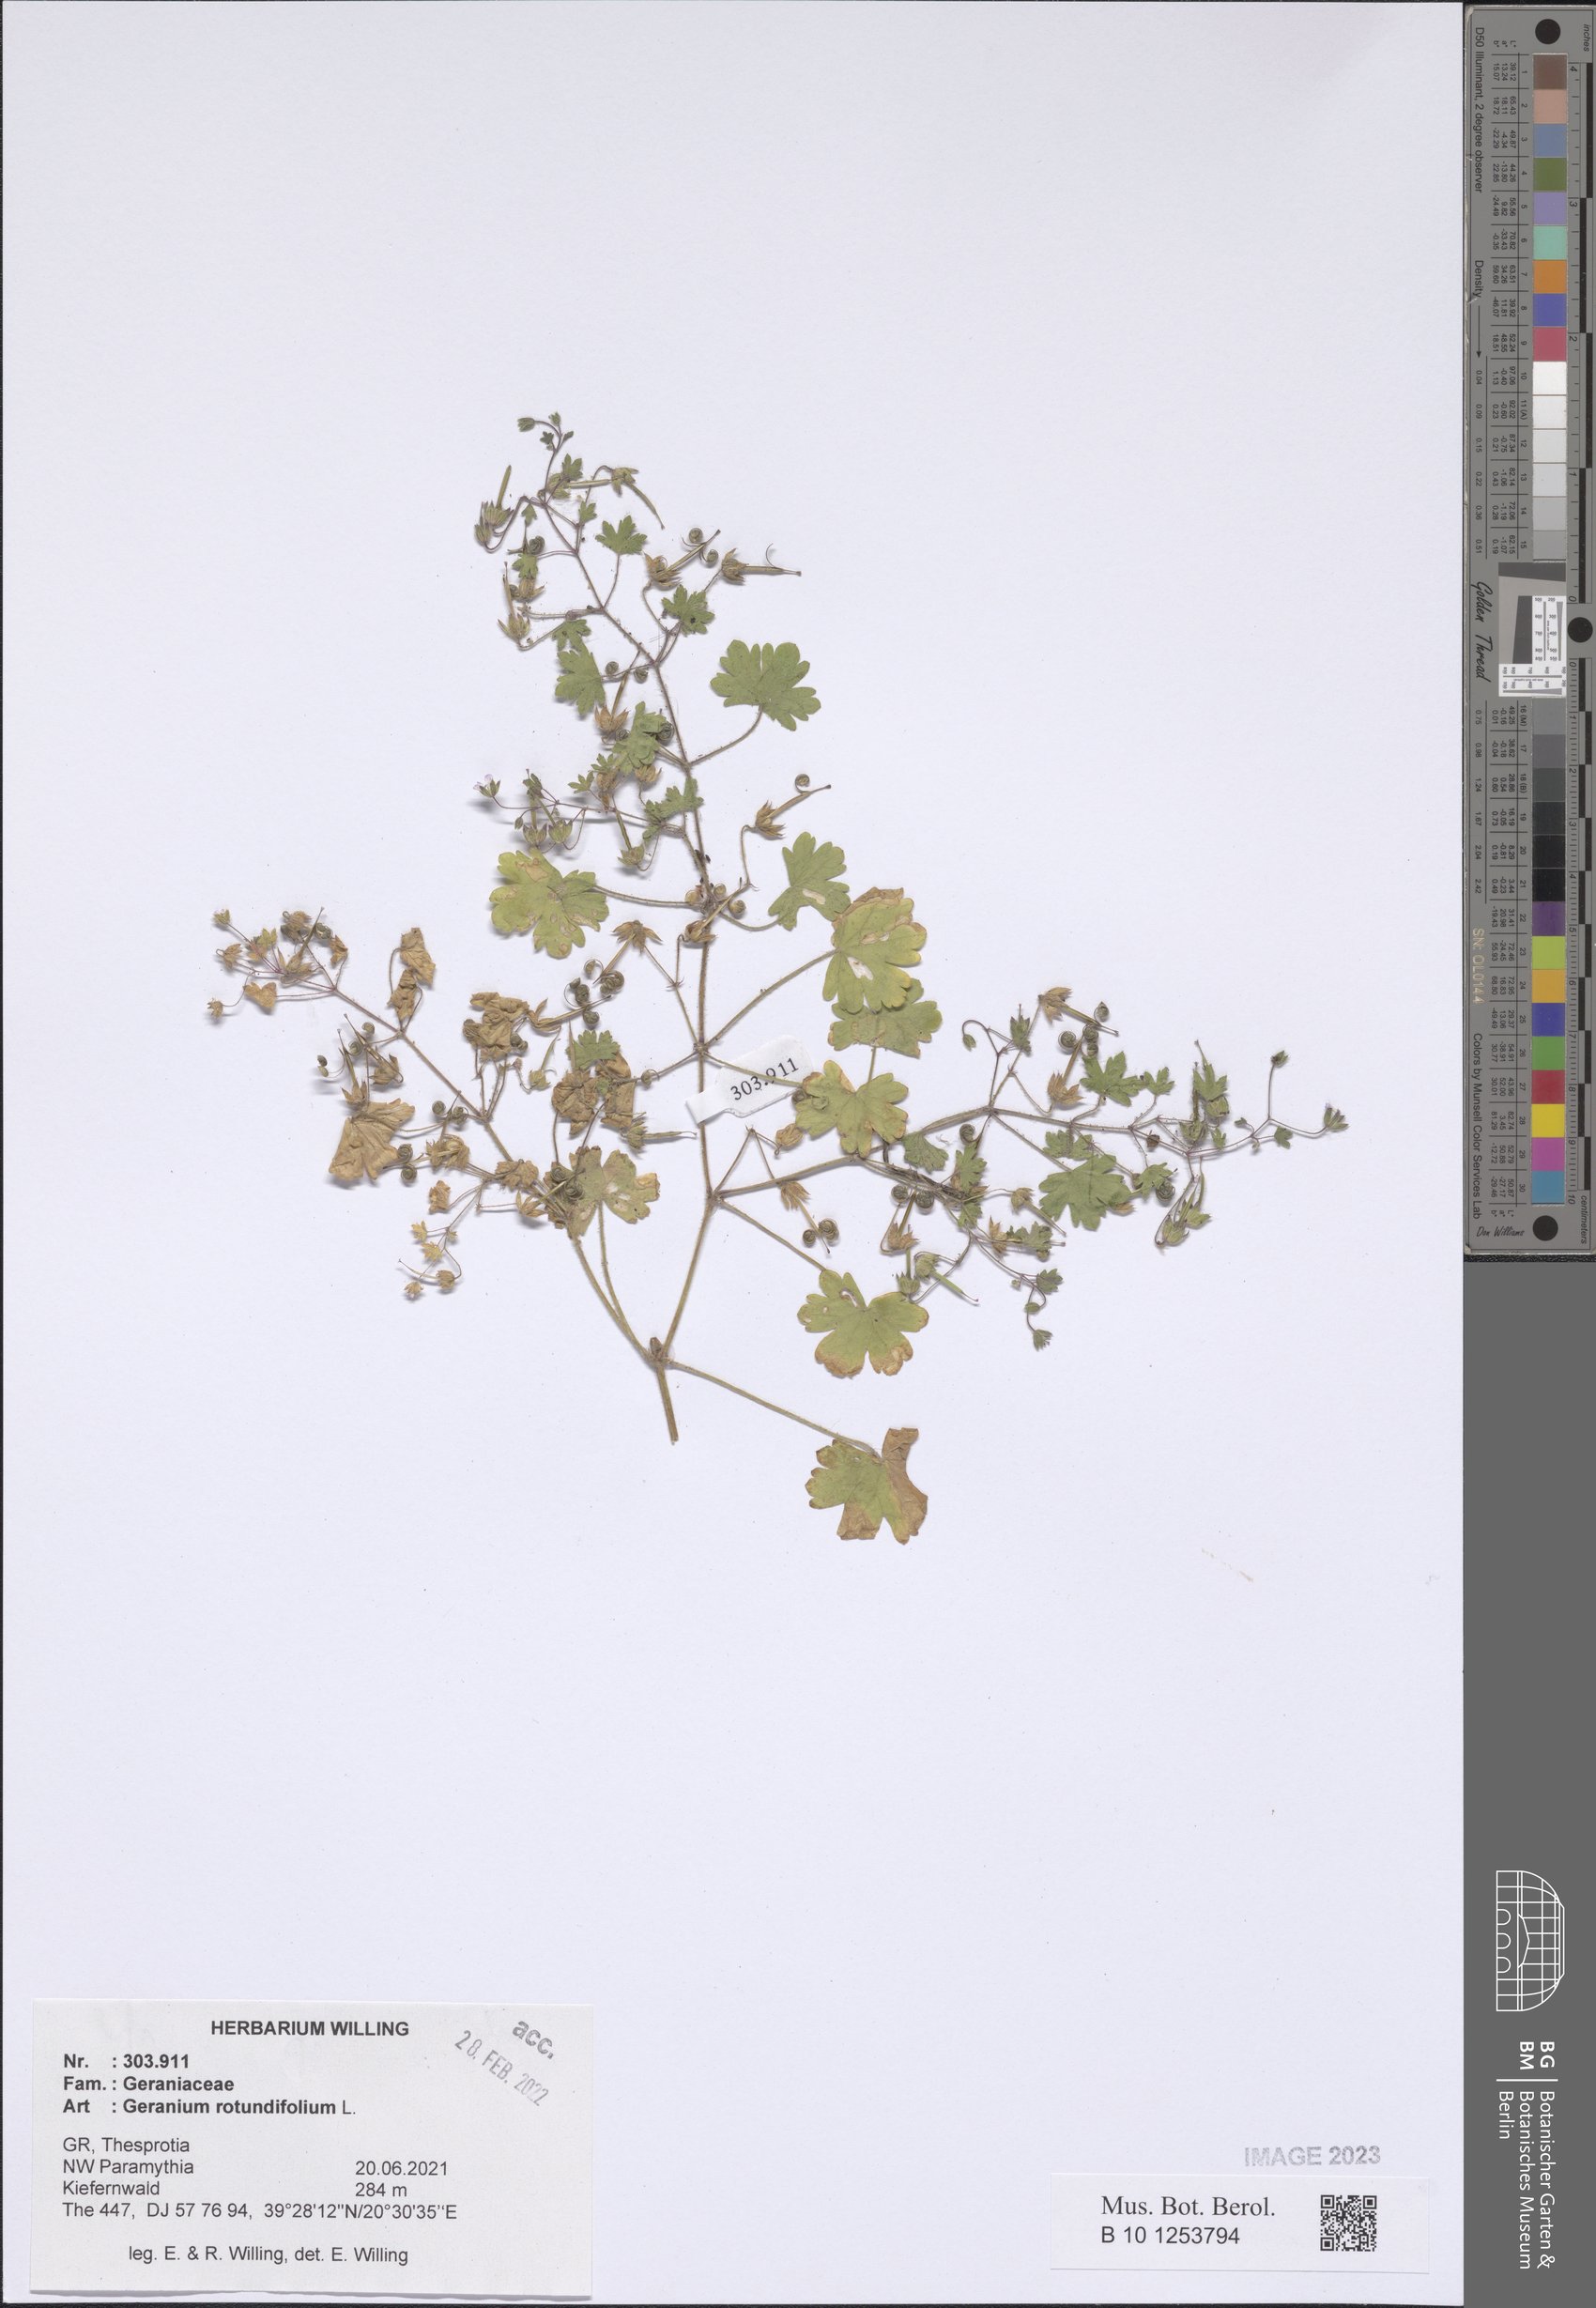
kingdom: Plantae
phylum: Tracheophyta
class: Magnoliopsida
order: Geraniales
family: Geraniaceae
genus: Geranium
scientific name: Geranium rotundifolium
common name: Round-leaved crane's-bill
